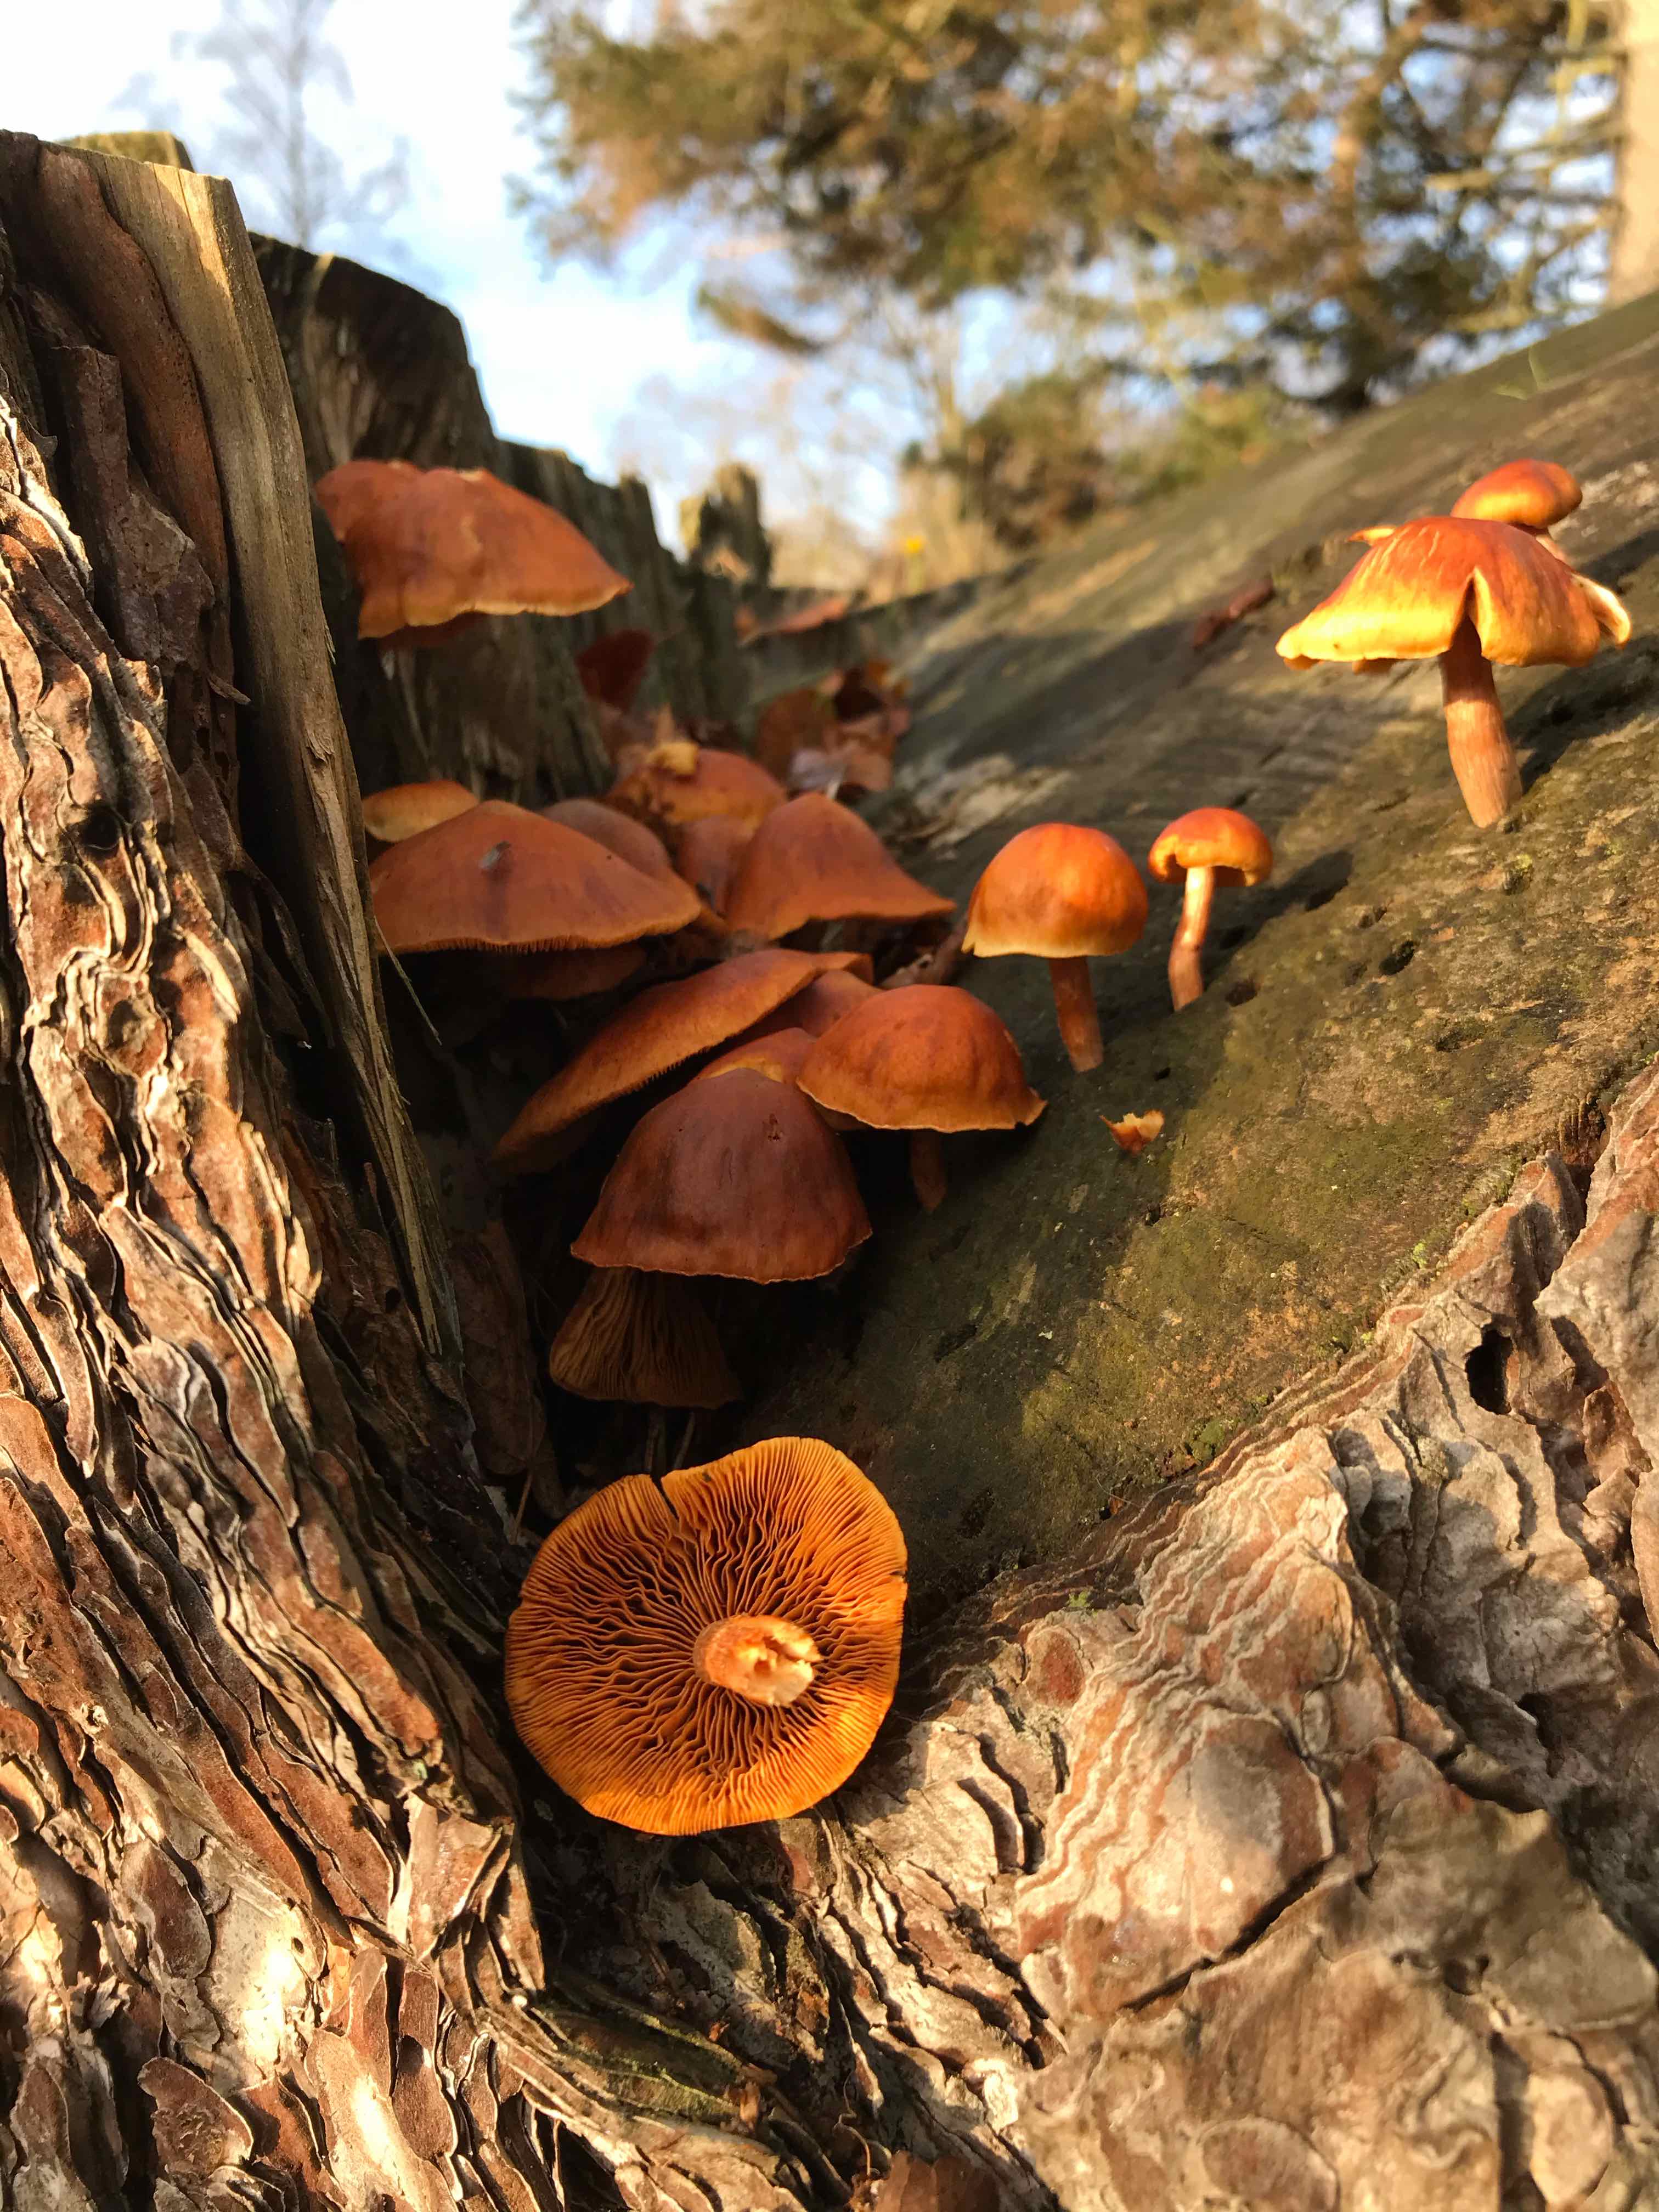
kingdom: Fungi
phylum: Basidiomycota
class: Agaricomycetes
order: Agaricales
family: Hymenogastraceae
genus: Gymnopilus
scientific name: Gymnopilus penetrans
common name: plettet flammehat
